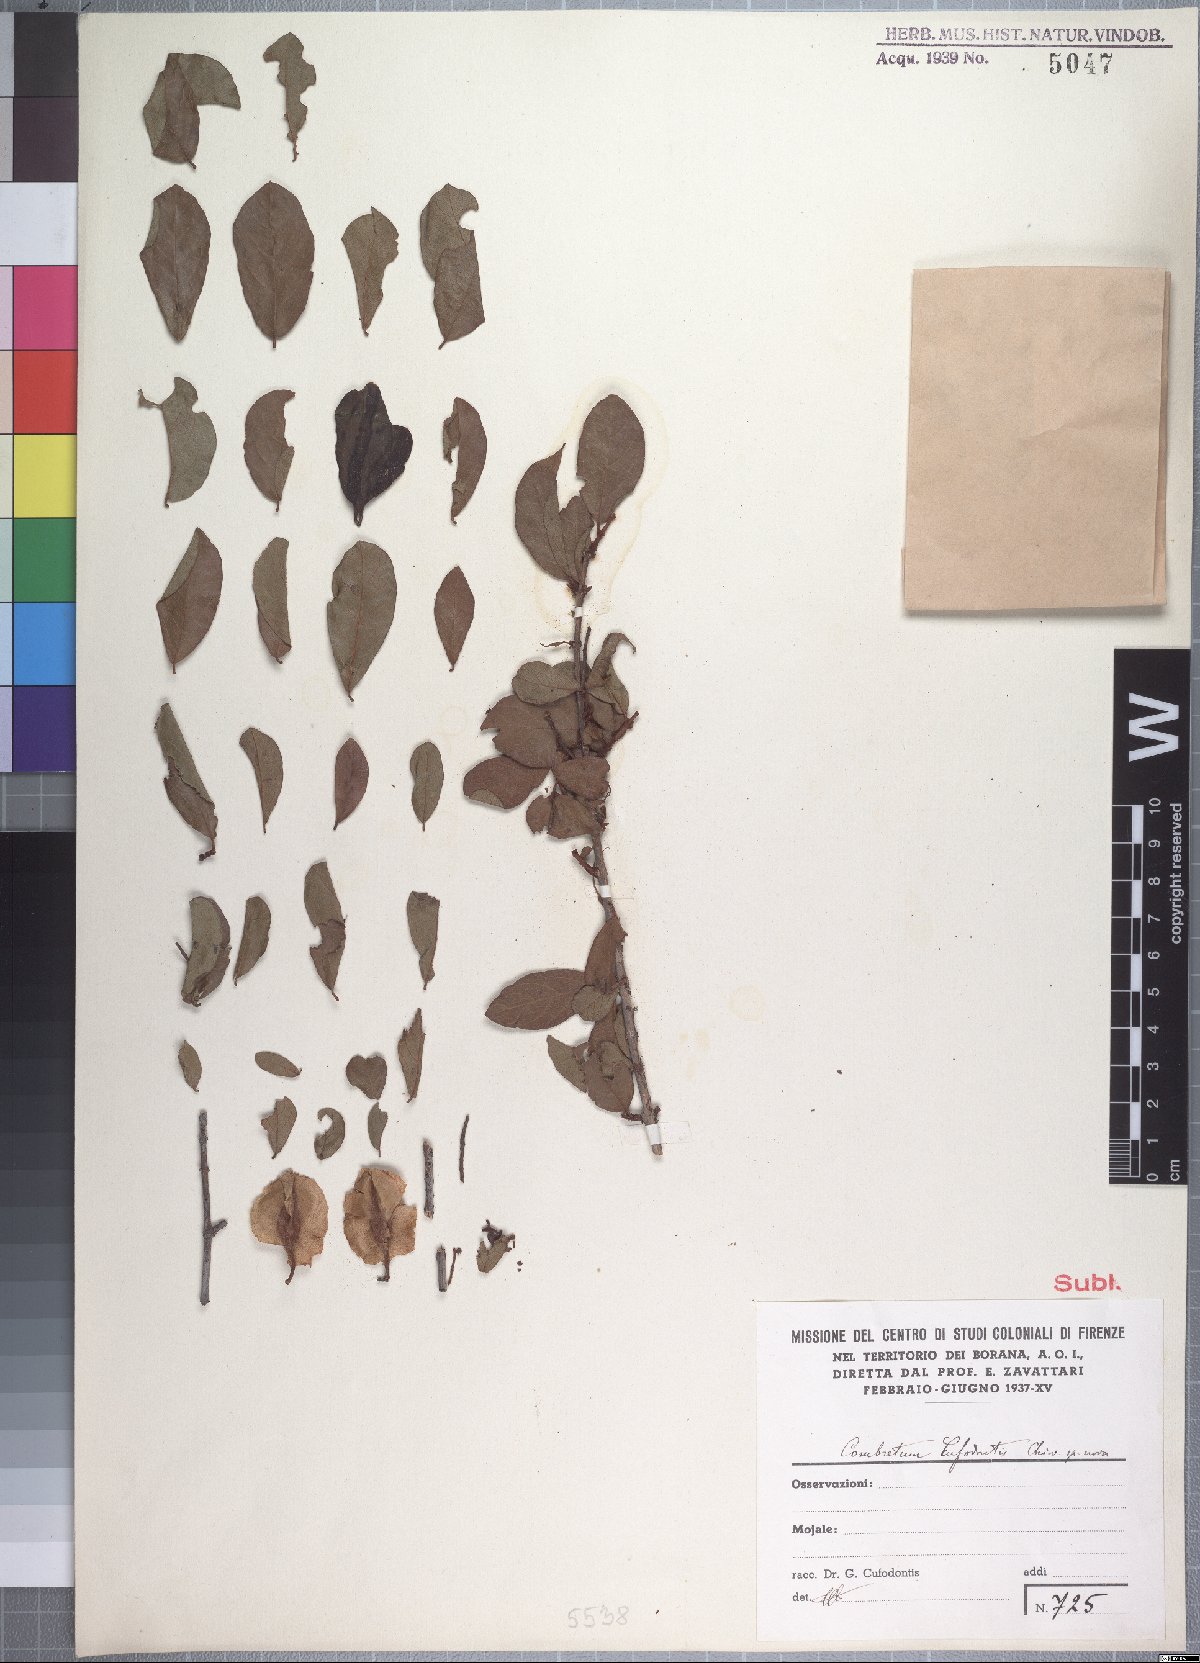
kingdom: Plantae
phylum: Tracheophyta
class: Magnoliopsida
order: Myrtales
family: Combretaceae
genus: Combretum
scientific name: Combretum hereroense
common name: Russet bushwillow
